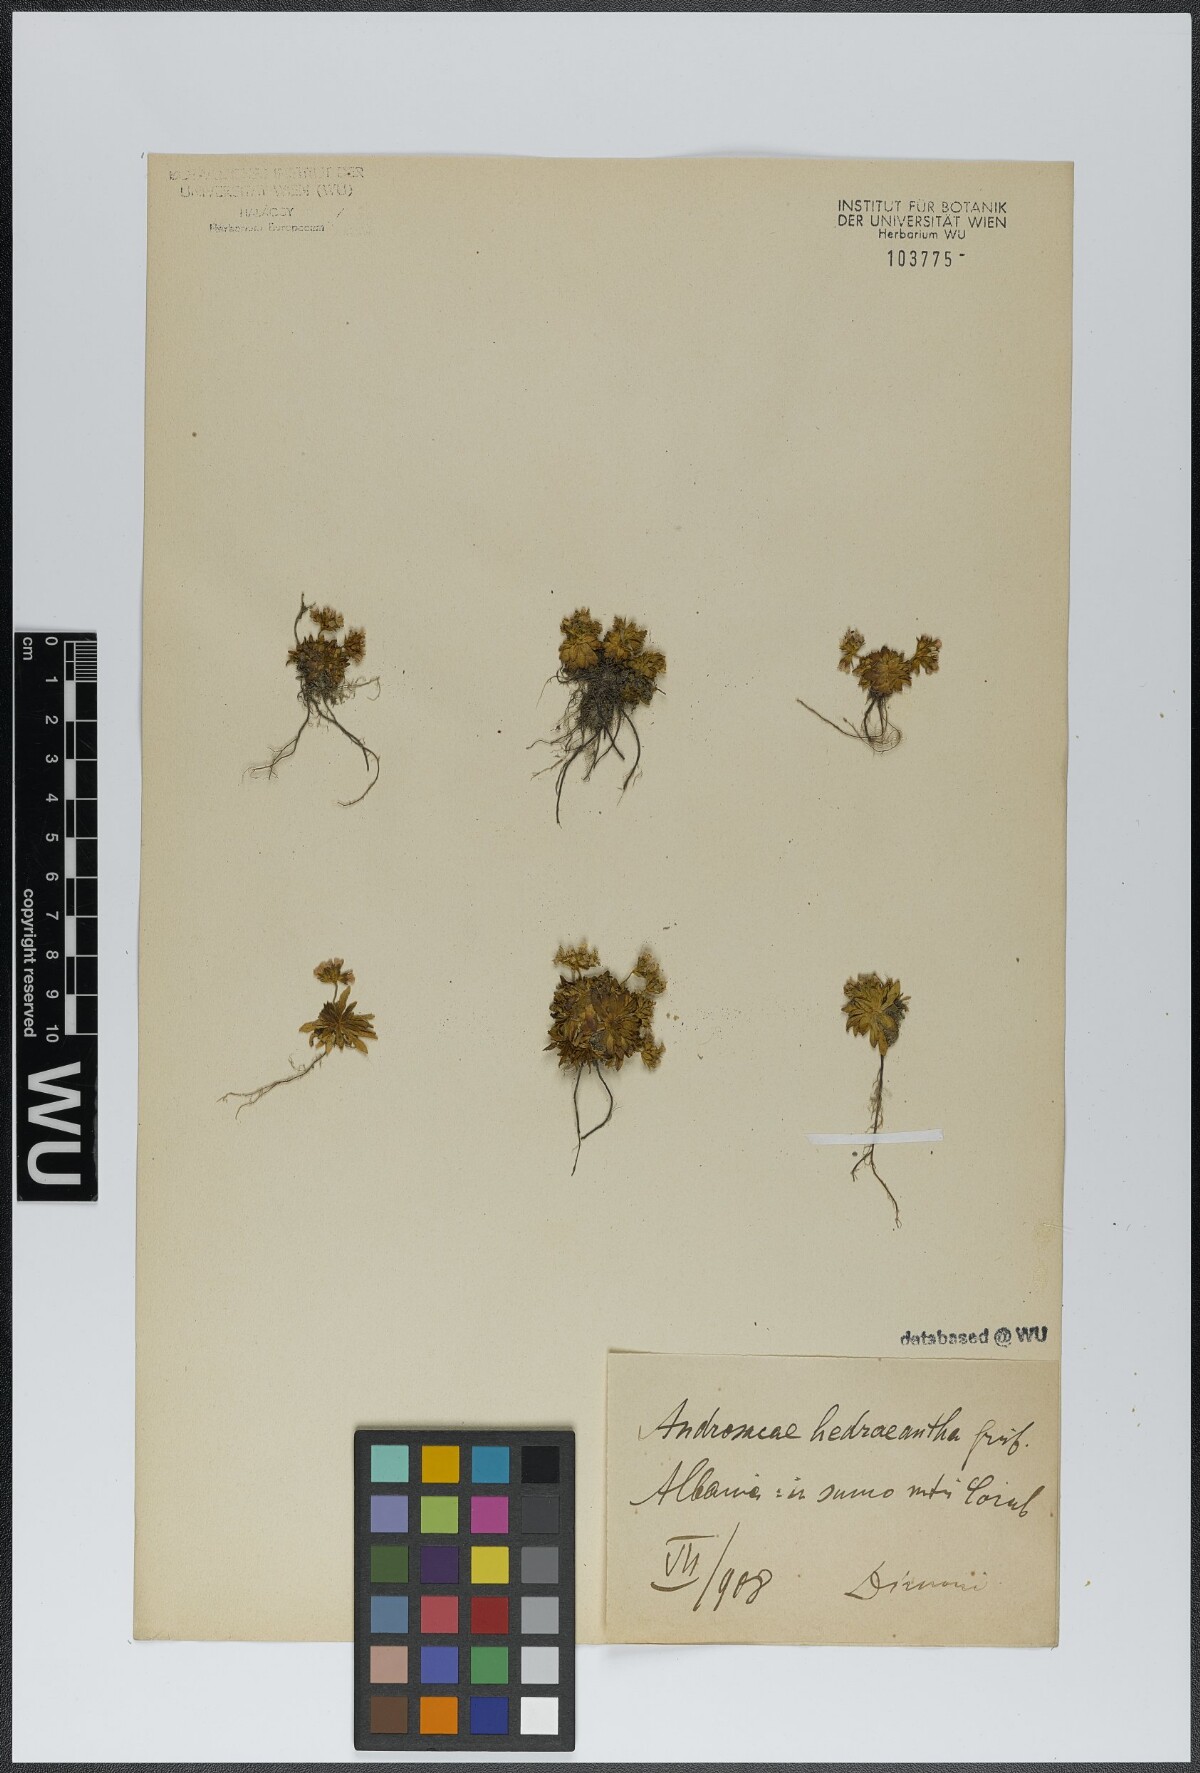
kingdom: Plantae
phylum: Tracheophyta
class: Magnoliopsida
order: Ericales
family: Primulaceae
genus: Androsace
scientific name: Androsace hedraeantha
